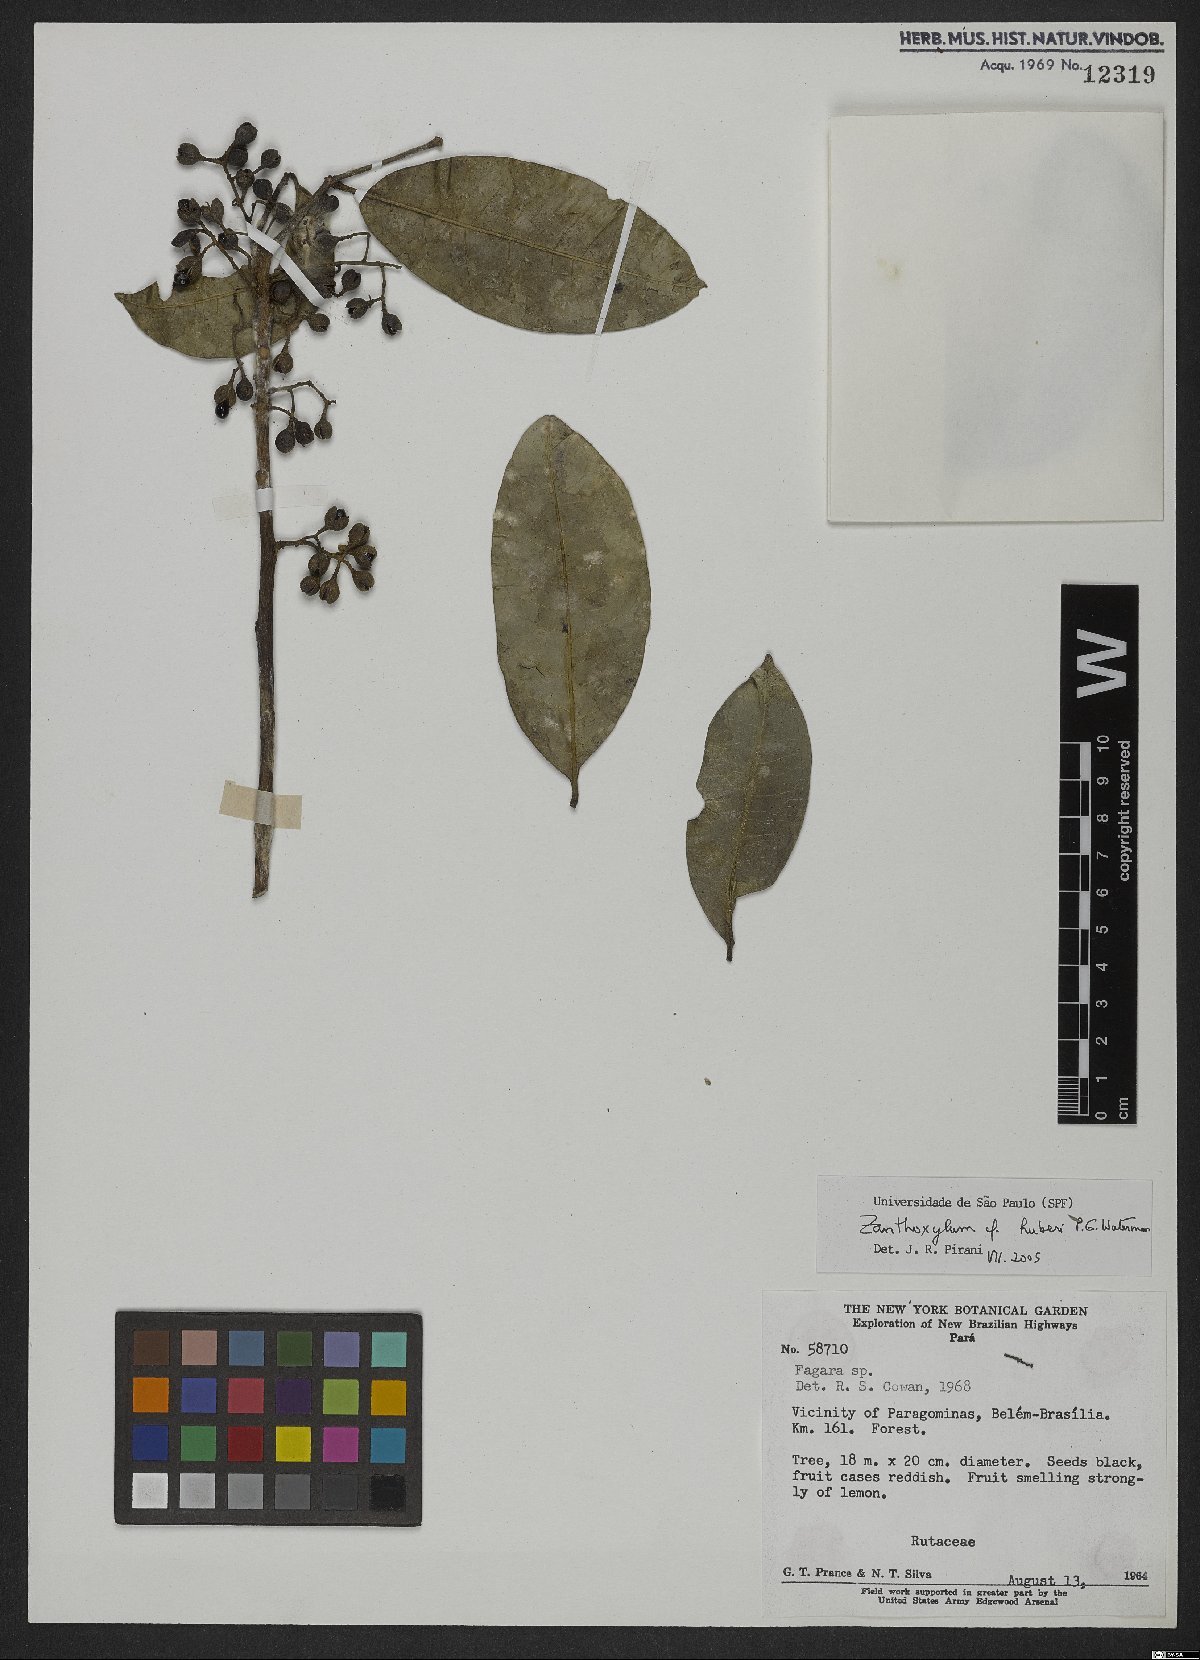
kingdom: Plantae
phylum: Tracheophyta
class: Magnoliopsida
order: Sapindales
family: Rutaceae
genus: Zanthoxylum
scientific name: Zanthoxylum huberi
